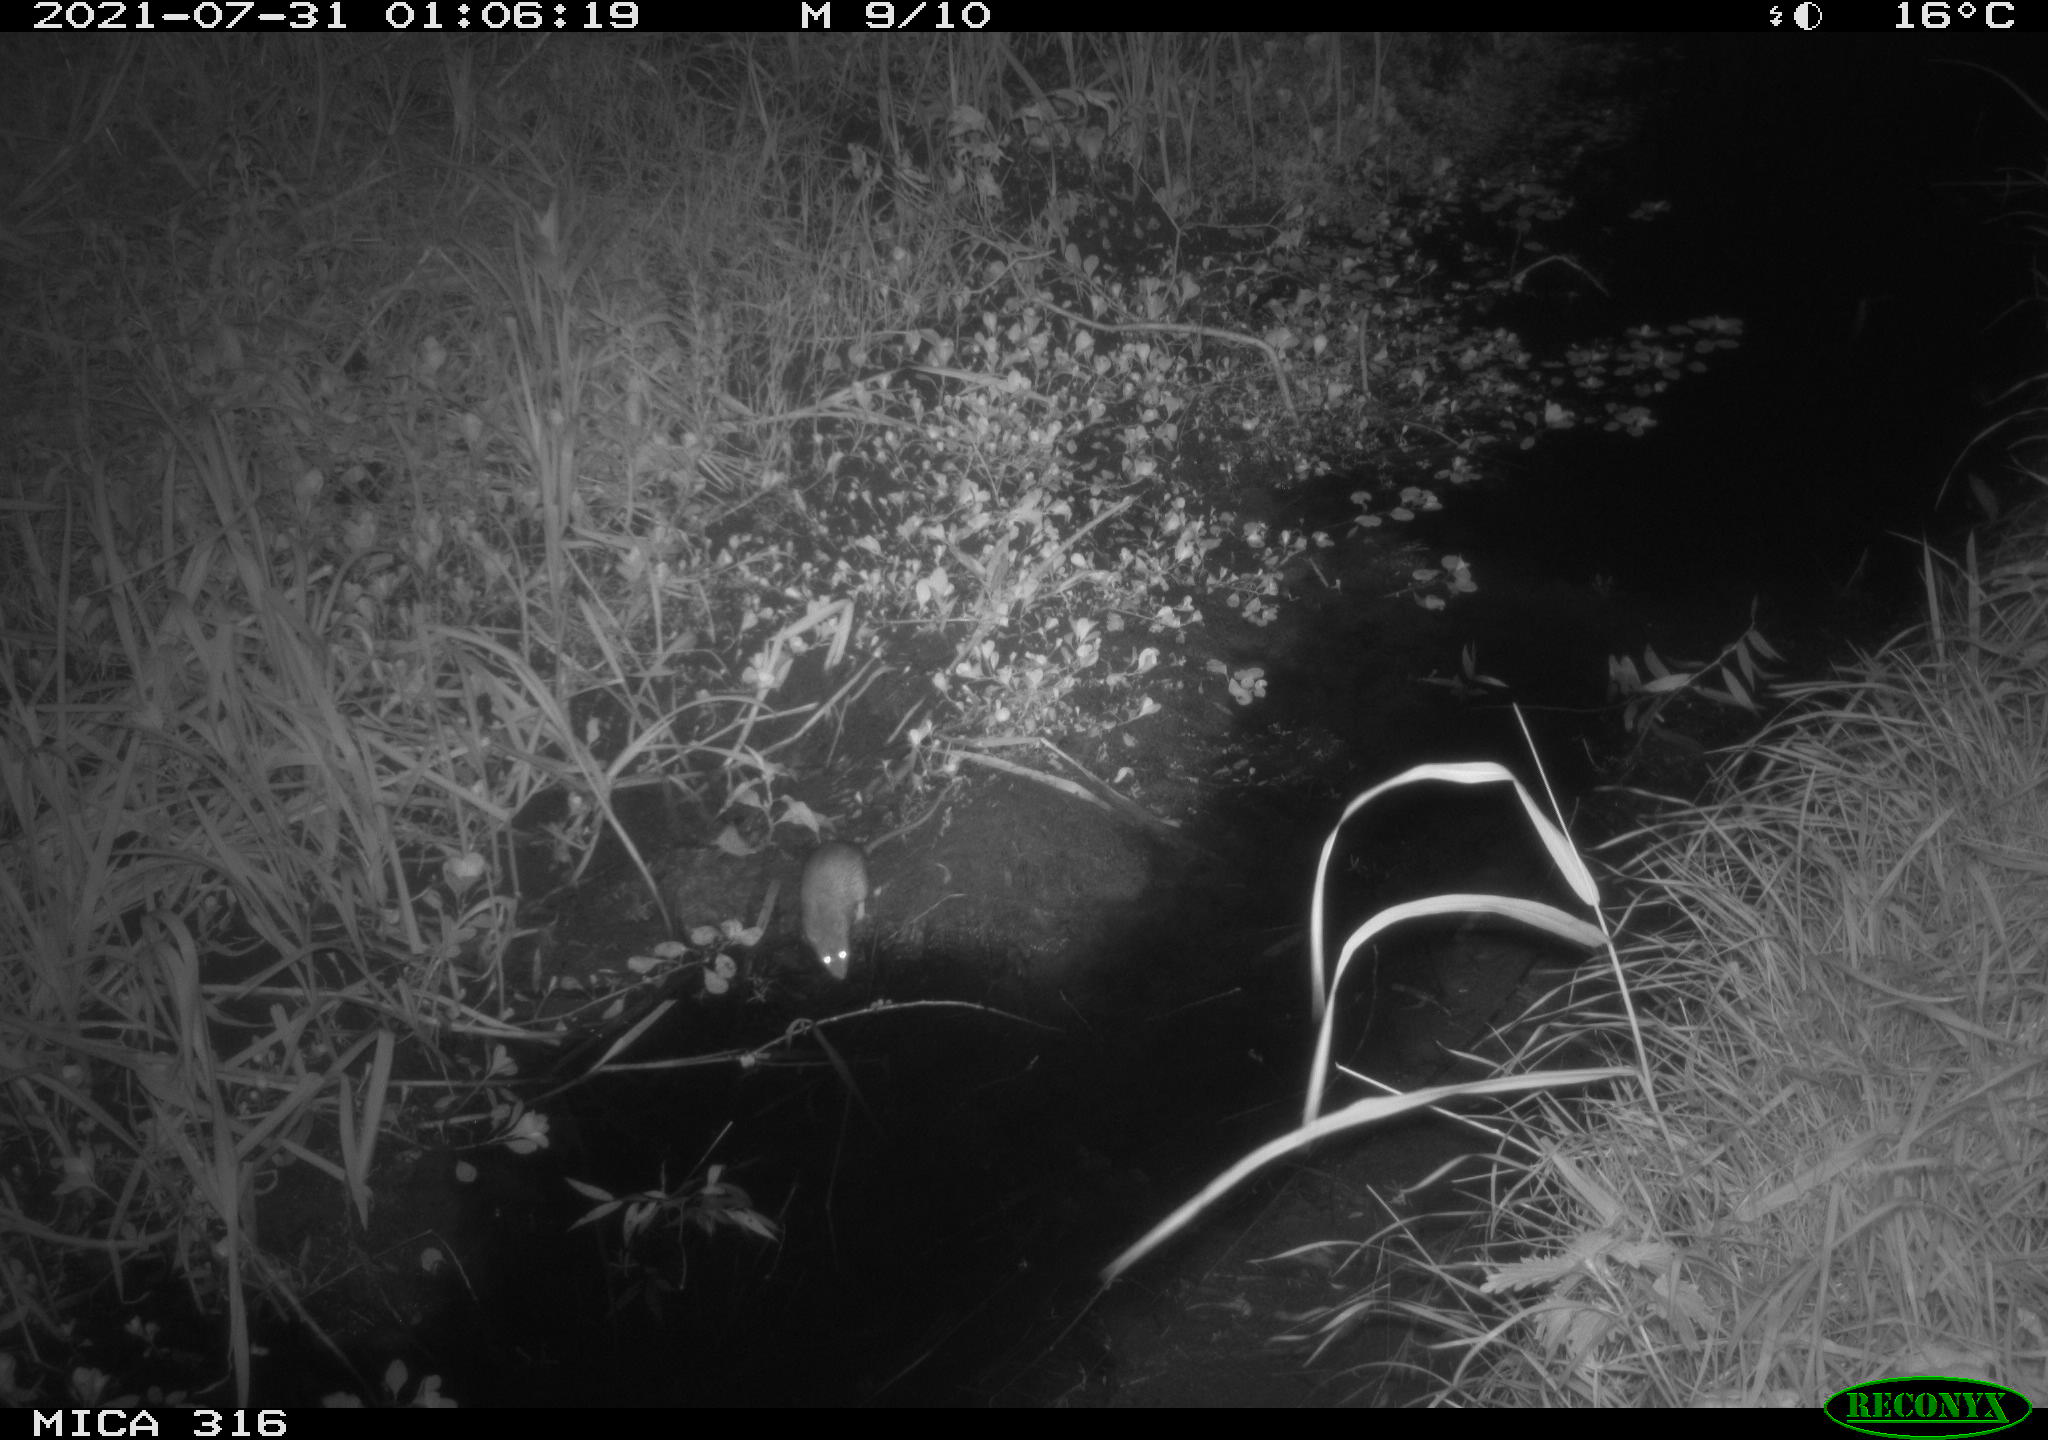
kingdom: Animalia
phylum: Chordata
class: Mammalia
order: Rodentia
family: Muridae
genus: Rattus
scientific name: Rattus norvegicus
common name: Brown rat
